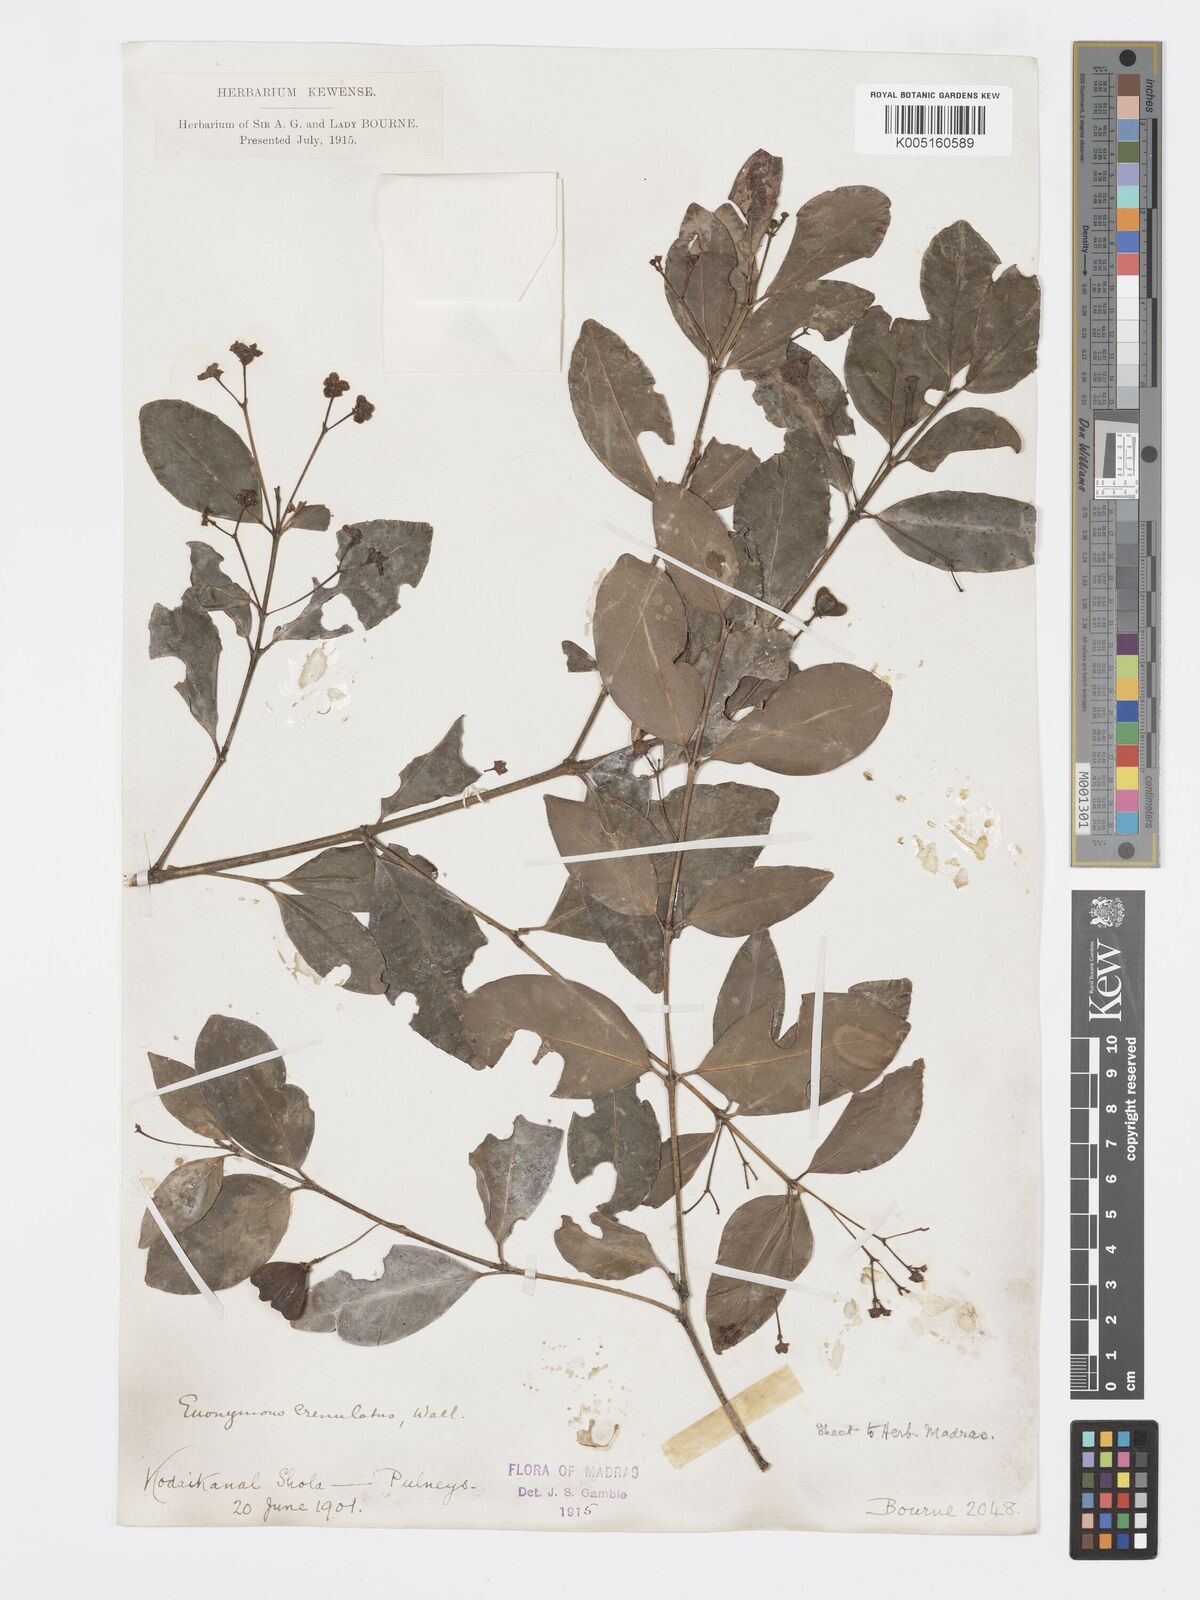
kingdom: Plantae
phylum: Tracheophyta
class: Magnoliopsida
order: Celastrales
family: Celastraceae
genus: Euonymus
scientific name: Euonymus crenulatus
